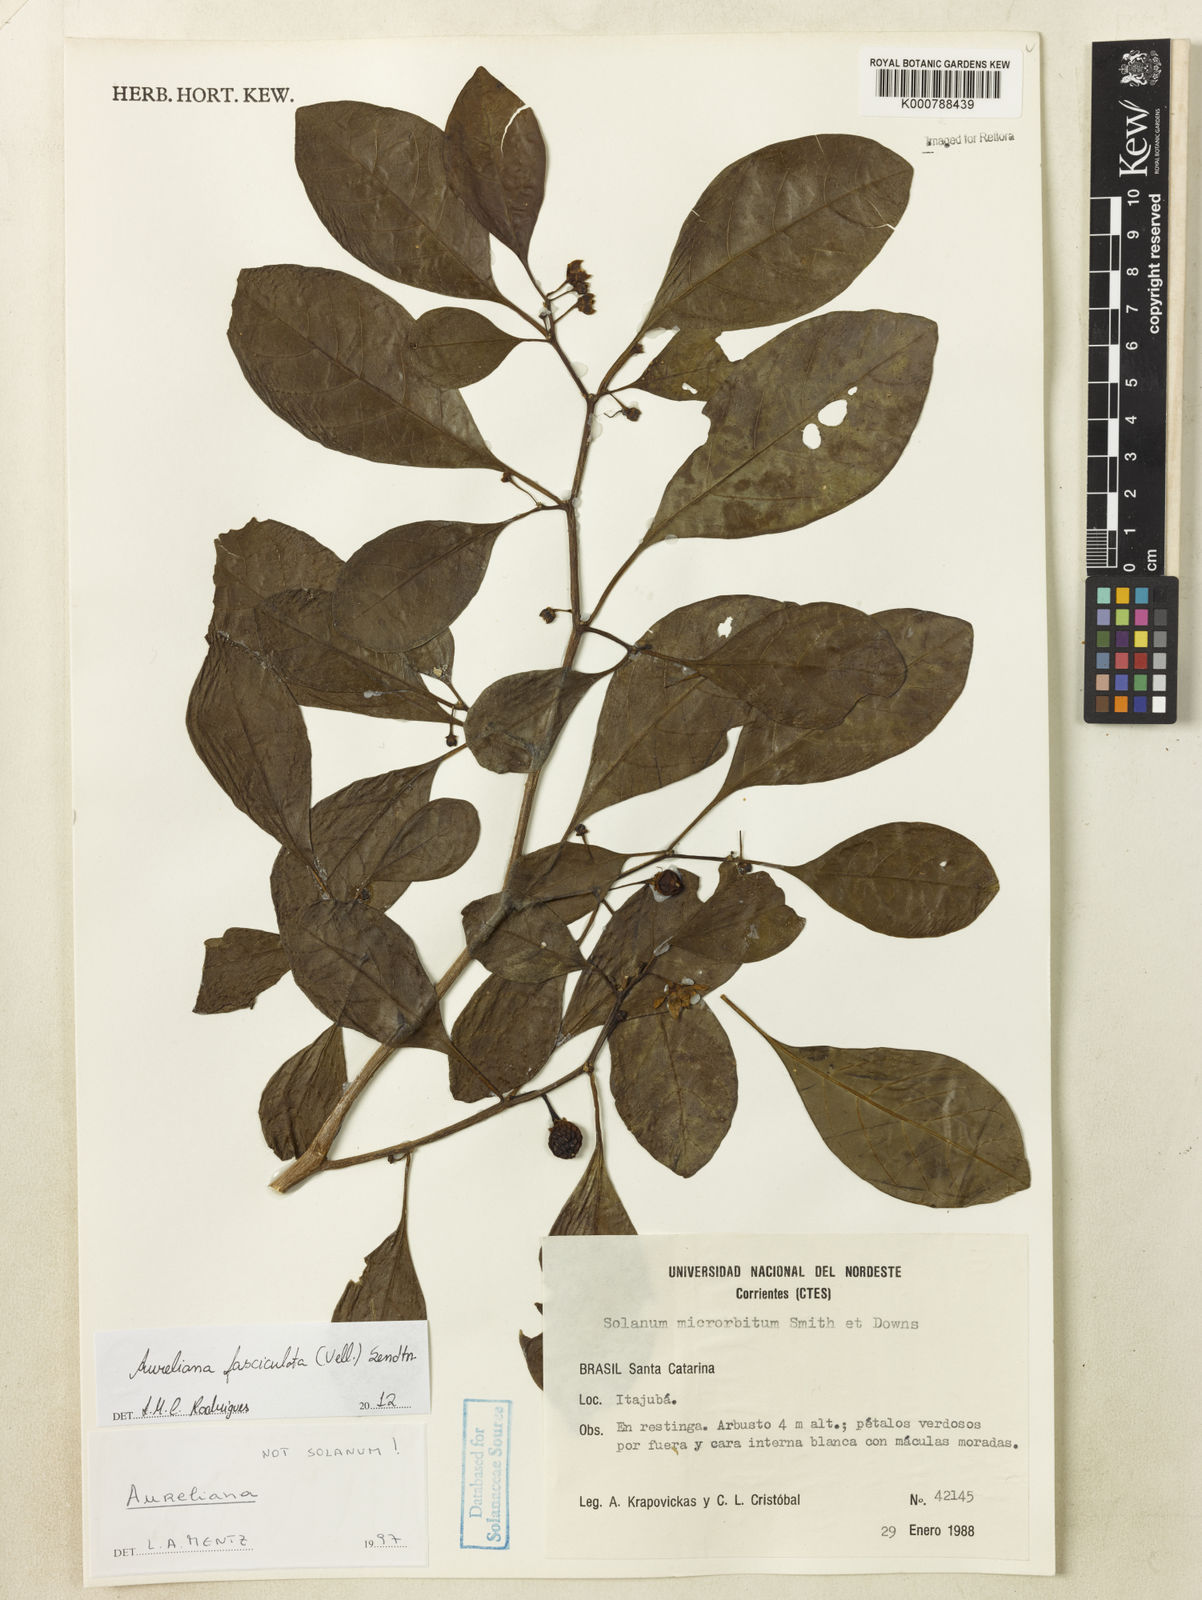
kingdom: Plantae
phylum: Tracheophyta
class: Magnoliopsida
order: Solanales
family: Solanaceae
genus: Athenaea
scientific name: Athenaea fasciculata
